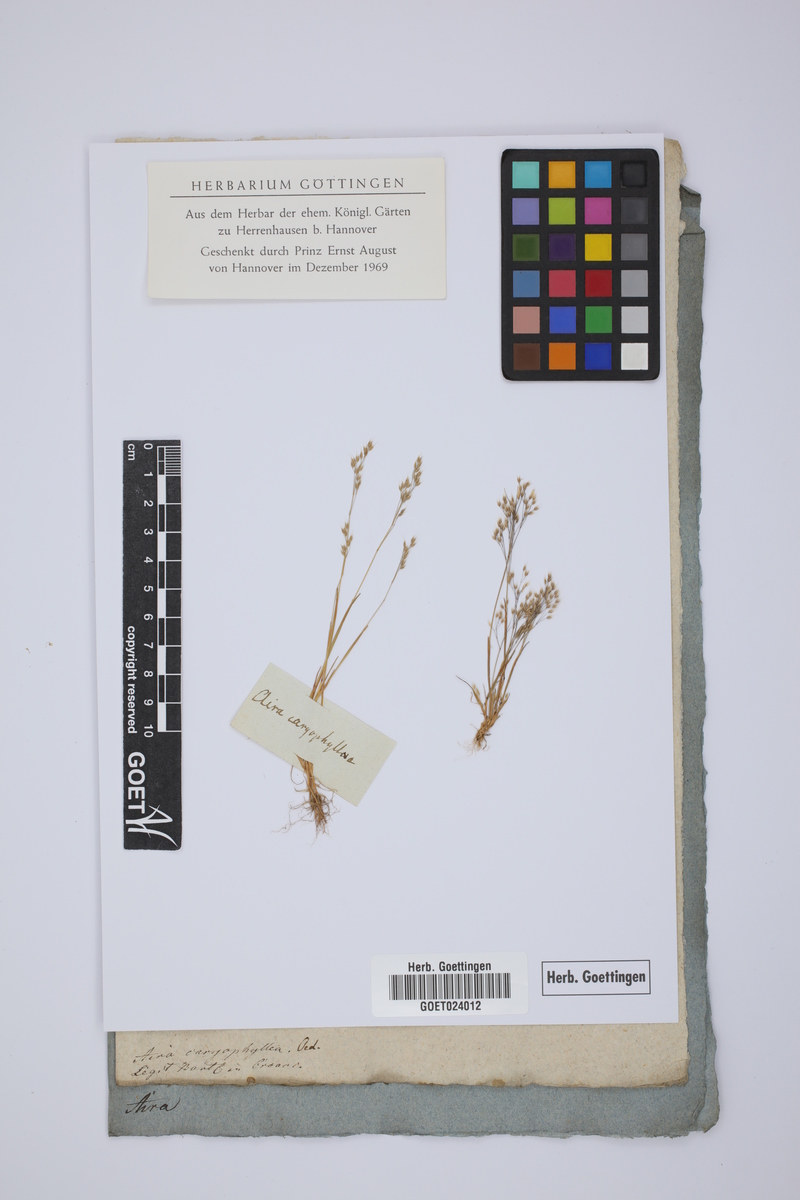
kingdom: Plantae
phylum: Tracheophyta
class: Liliopsida
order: Poales
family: Poaceae
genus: Aira
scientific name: Aira caryophyllea
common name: Silver hairgrass
